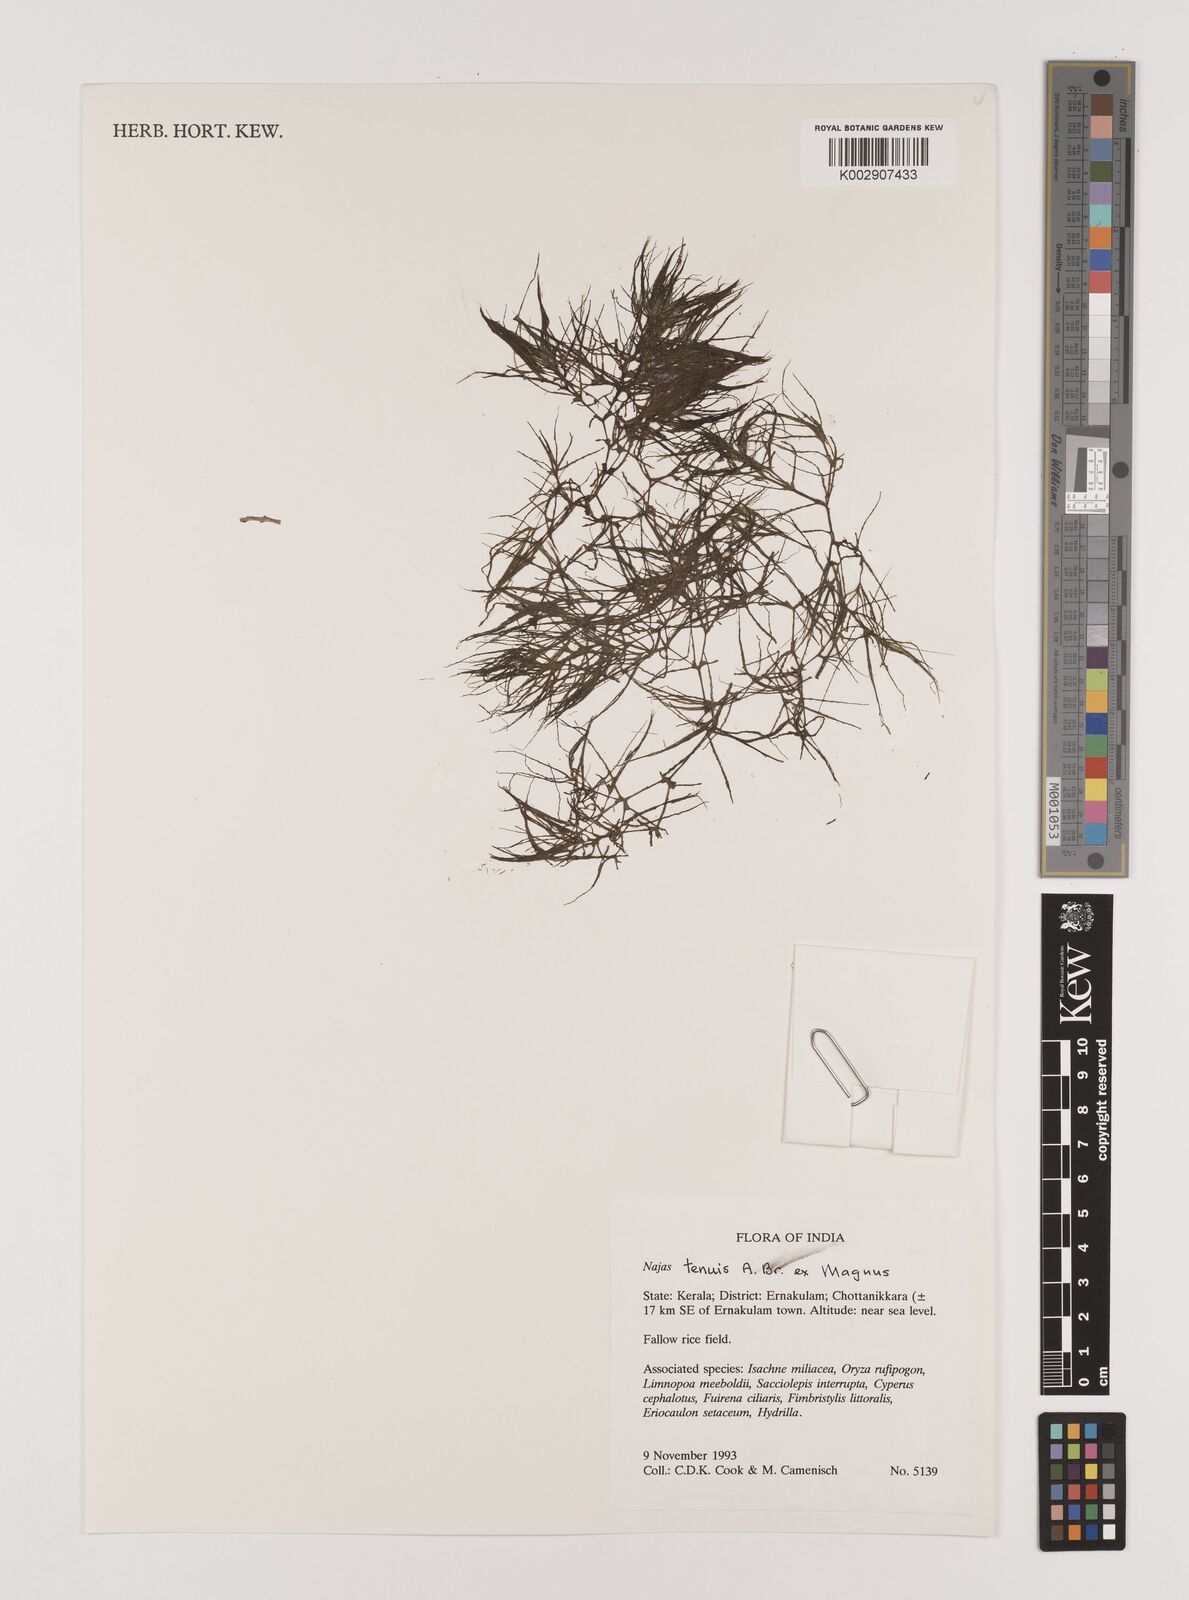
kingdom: Plantae
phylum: Tracheophyta
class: Liliopsida
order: Alismatales
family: Hydrocharitaceae
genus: Najas
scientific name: Najas indica
